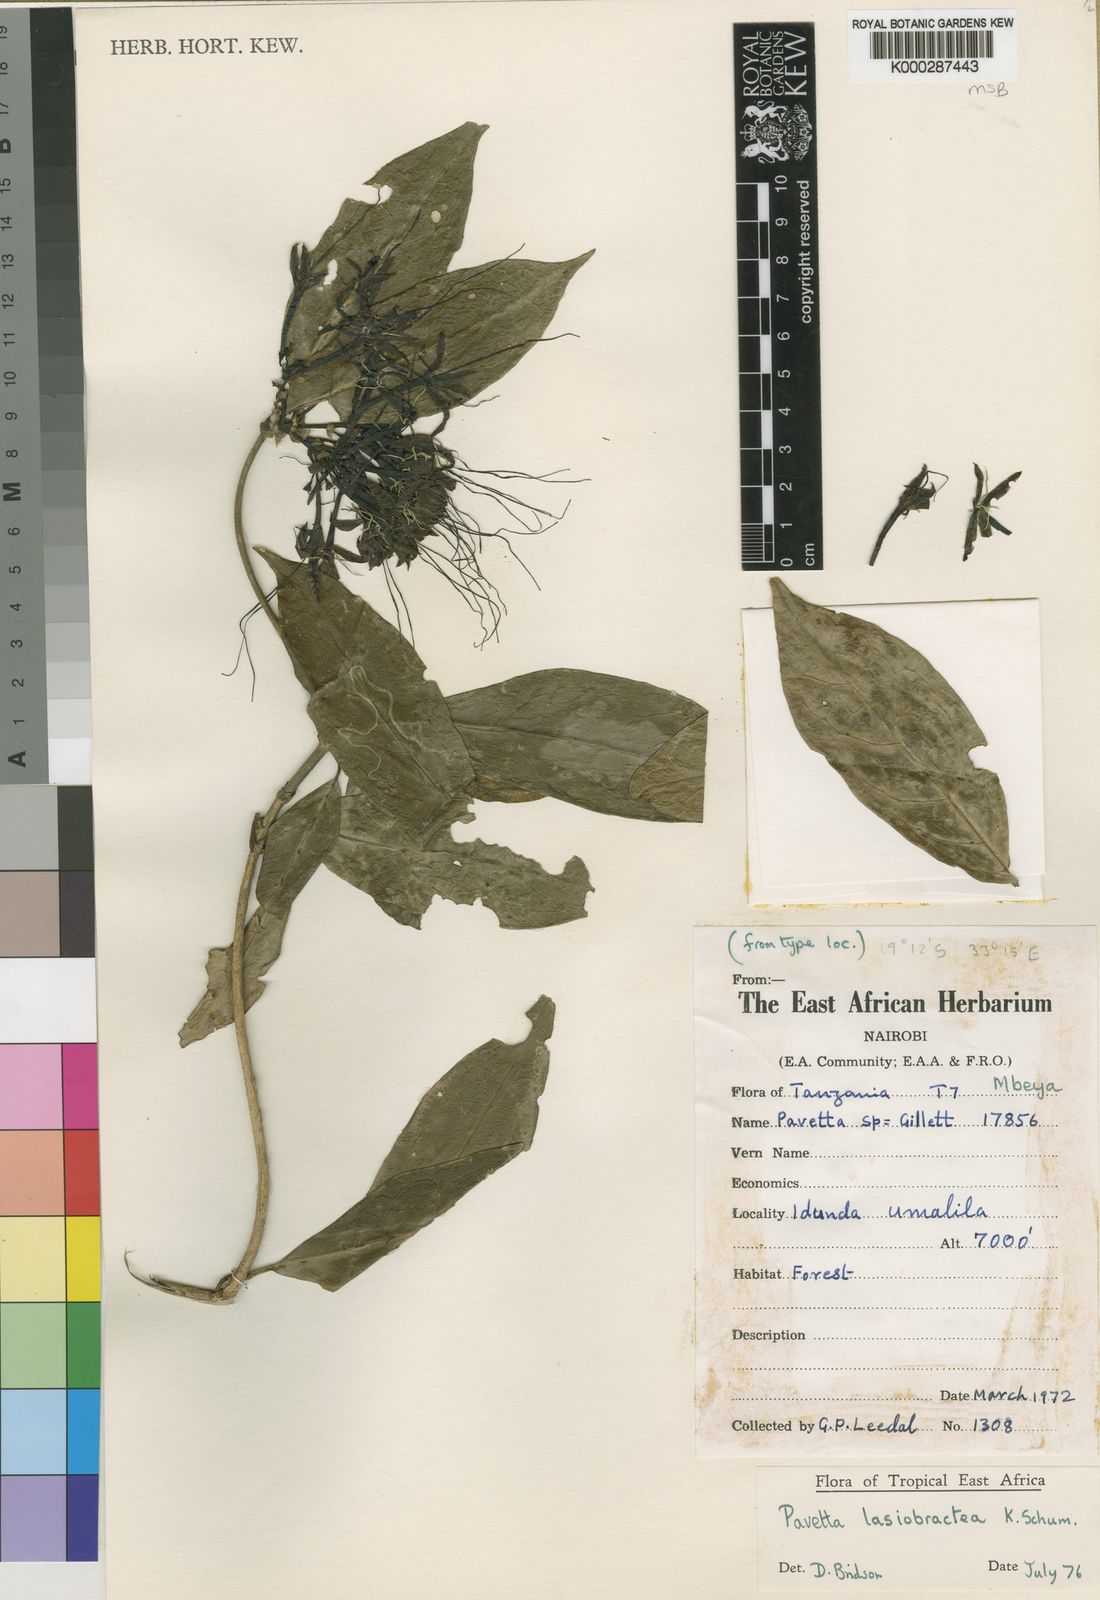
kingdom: Plantae
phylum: Tracheophyta
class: Magnoliopsida
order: Gentianales
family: Rubiaceae
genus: Pavetta
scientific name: Pavetta lasiobractea
